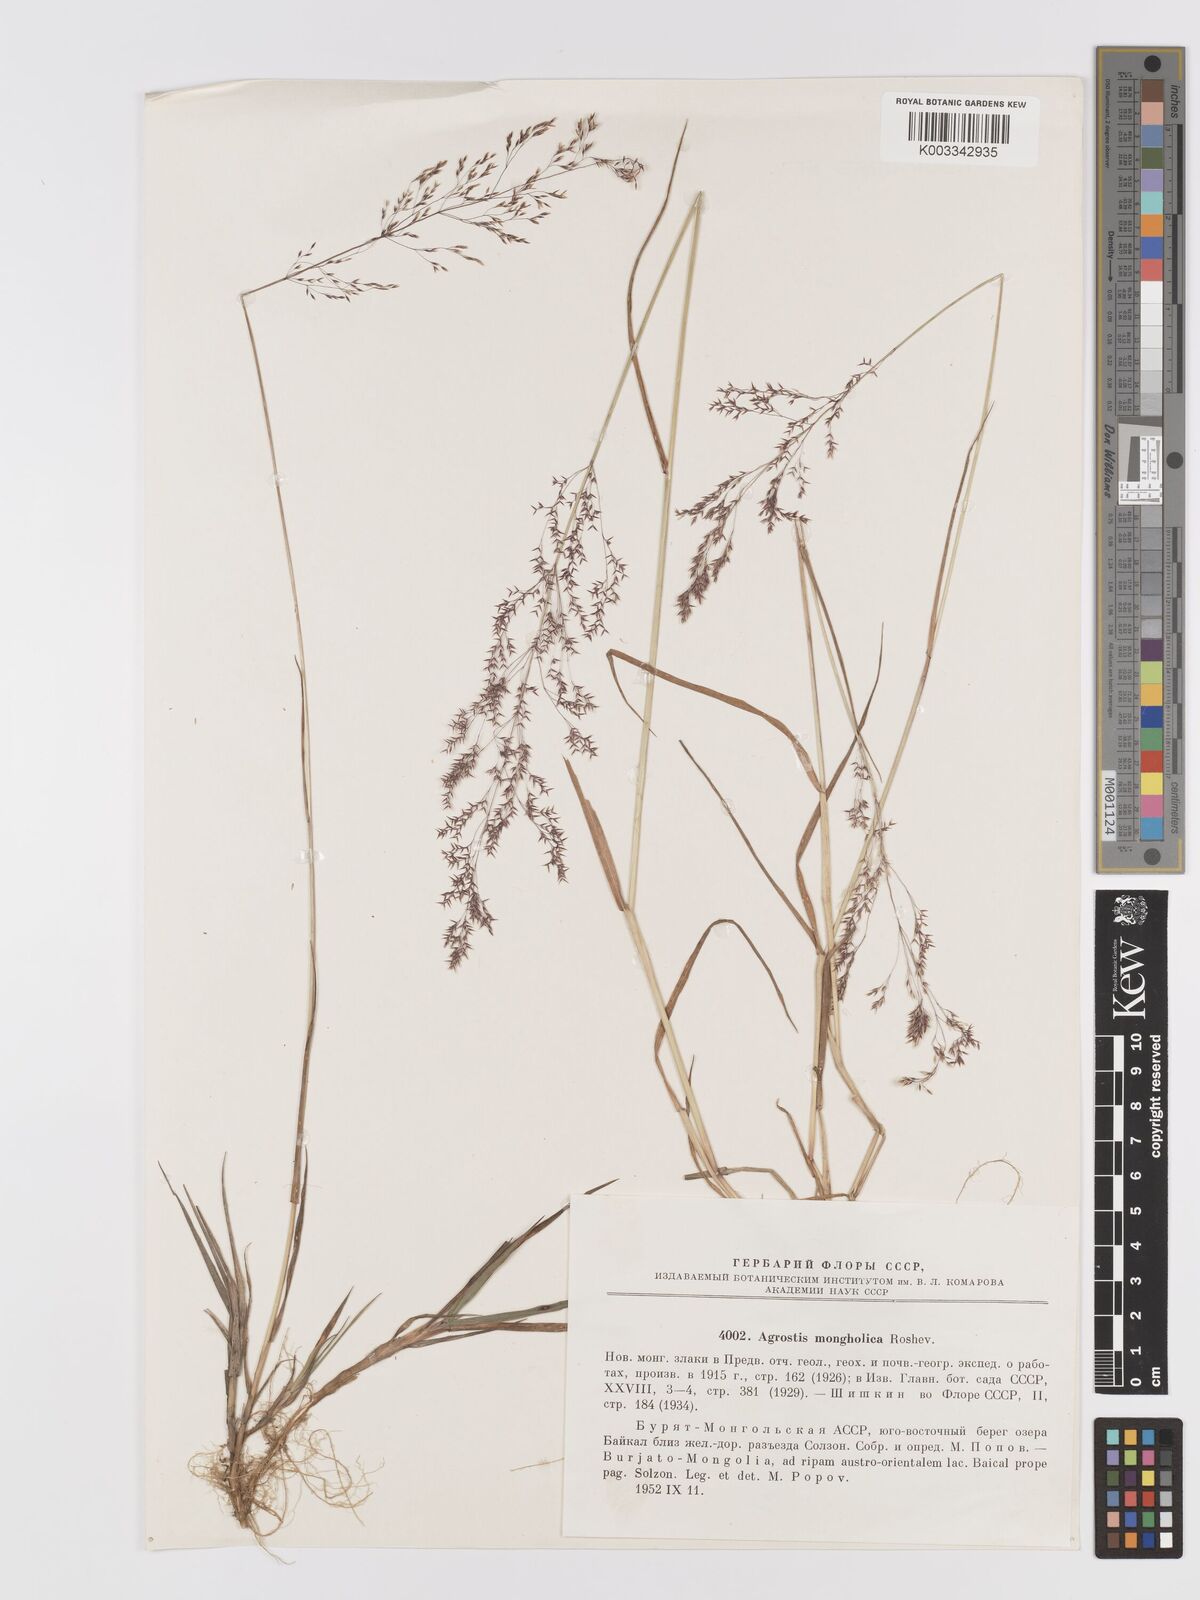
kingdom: Plantae
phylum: Tracheophyta
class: Liliopsida
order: Poales
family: Poaceae
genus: Agrostis
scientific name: Agrostis divaricatissima
